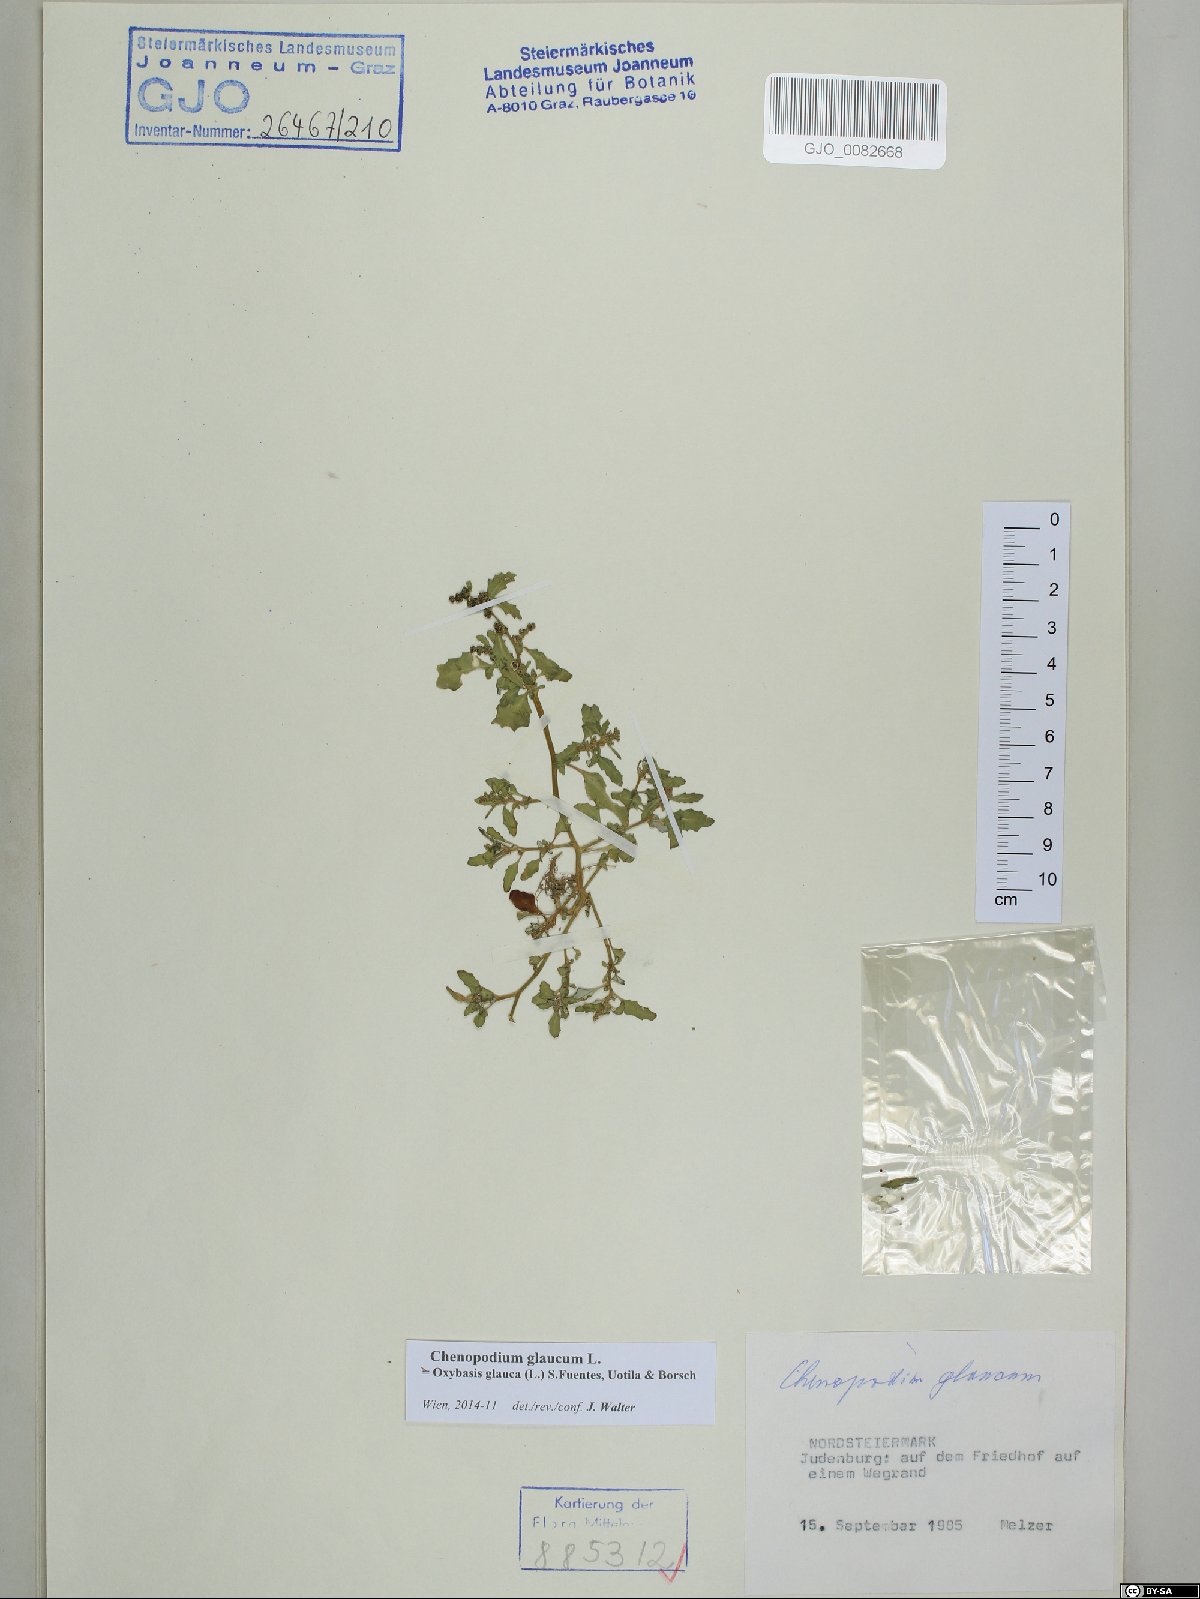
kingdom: Plantae
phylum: Tracheophyta
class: Magnoliopsida
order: Caryophyllales
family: Amaranthaceae
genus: Oxybasis
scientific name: Oxybasis glauca
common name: Glaucous goosefoot
